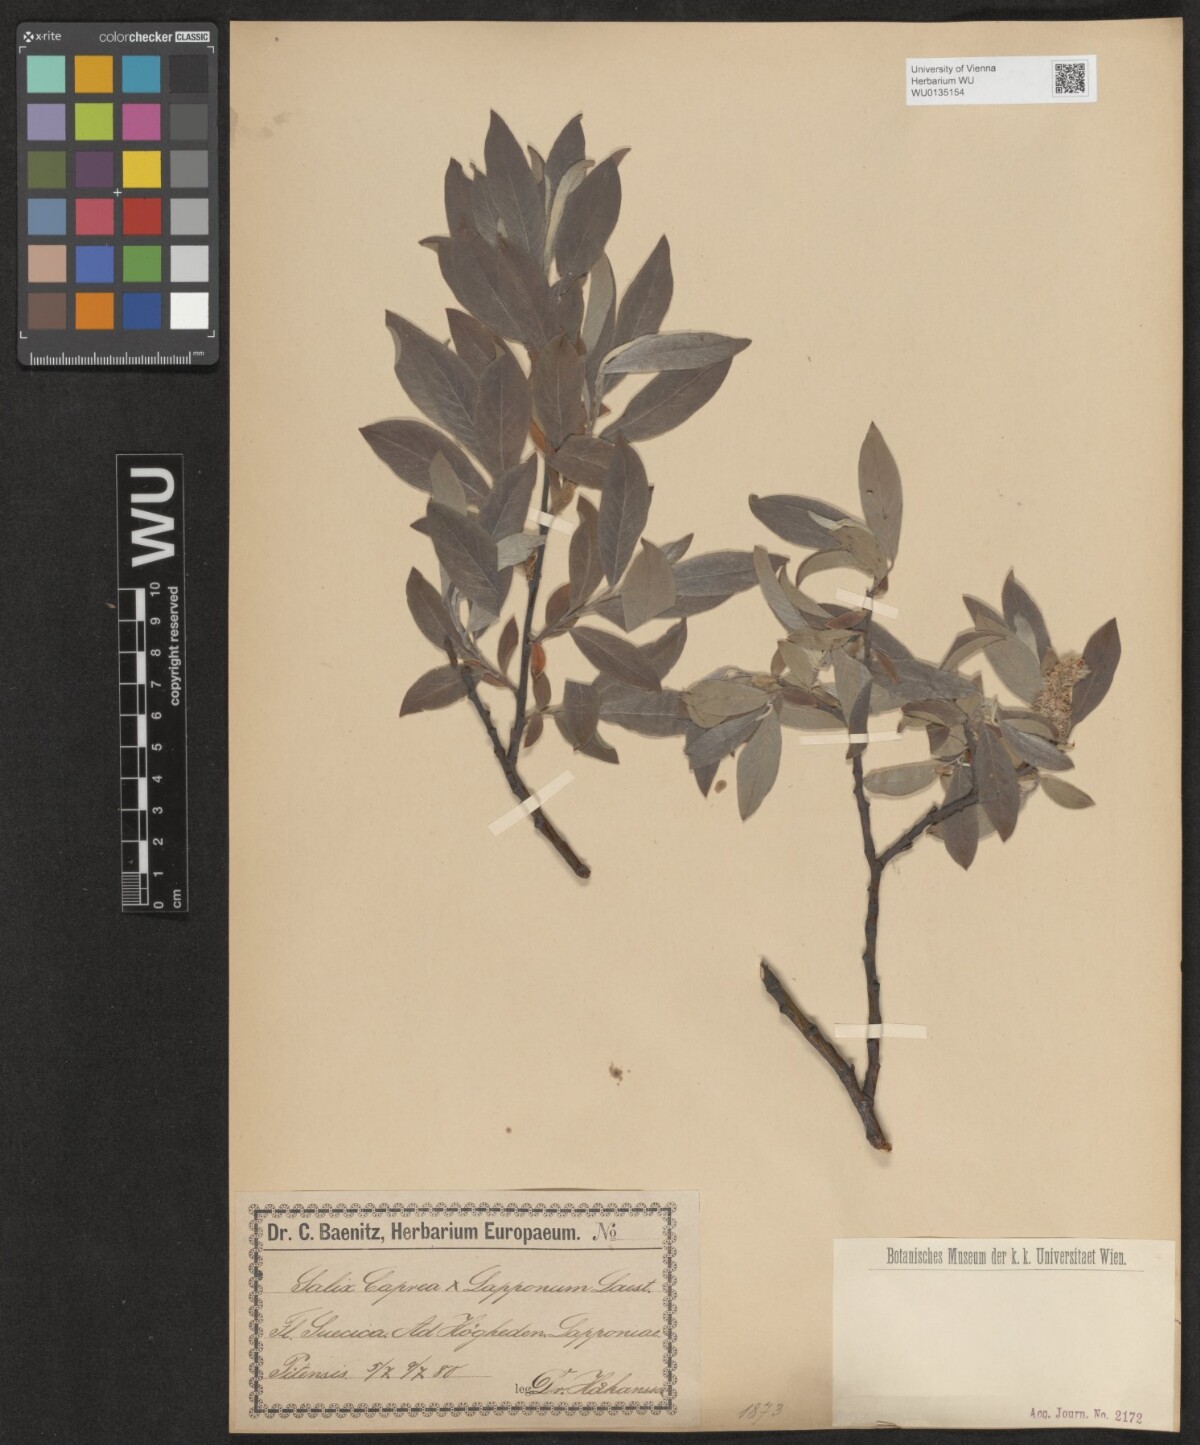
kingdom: Plantae
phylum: Tracheophyta
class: Magnoliopsida
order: Malpighiales
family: Salicaceae
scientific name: Salicaceae
